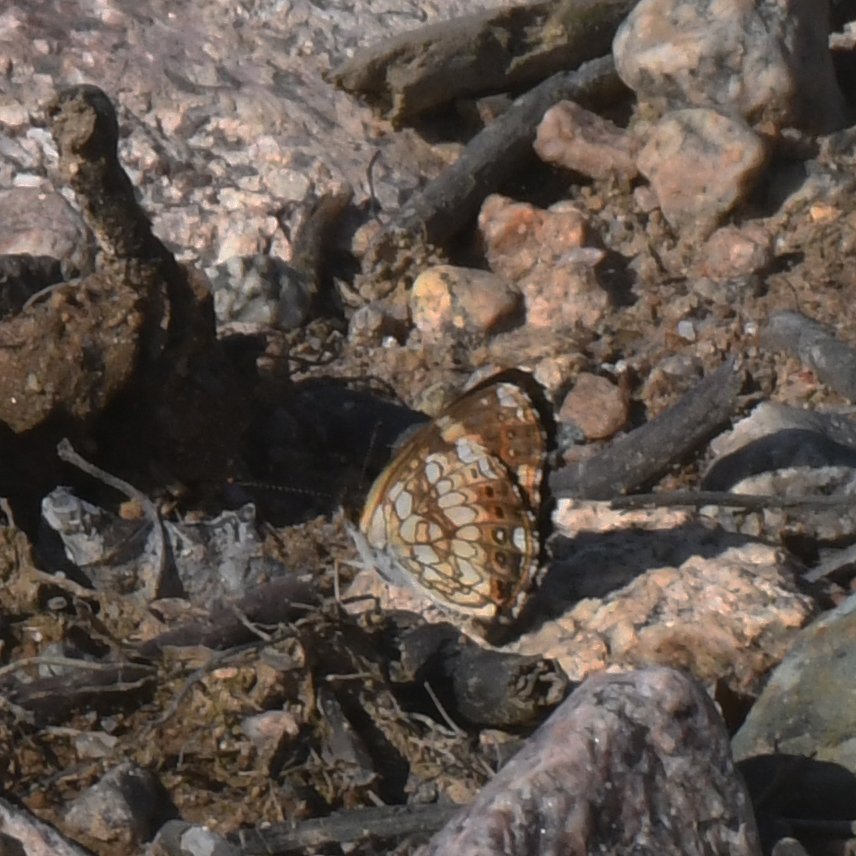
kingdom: Animalia
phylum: Arthropoda
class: Insecta
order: Lepidoptera
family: Nymphalidae
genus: Chlosyne
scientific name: Chlosyne nycteis
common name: Silvery Checkerspot
